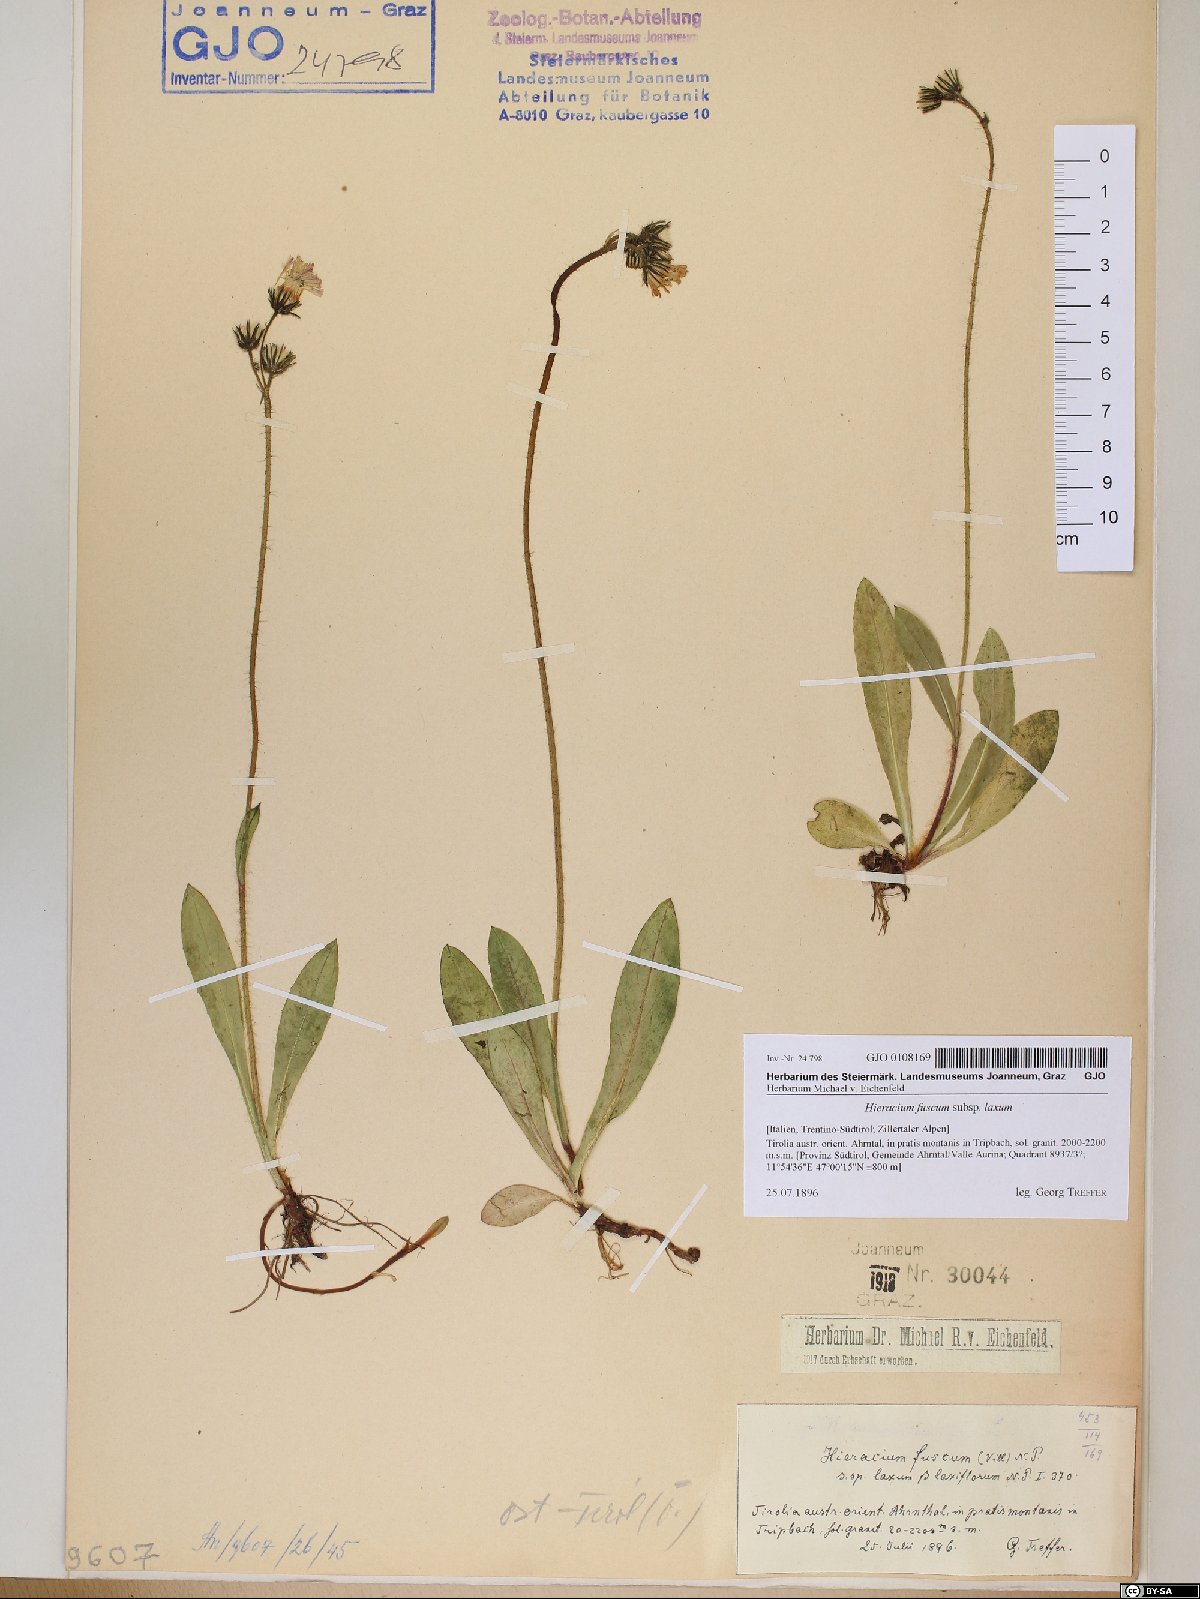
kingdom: Plantae
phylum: Tracheophyta
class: Magnoliopsida
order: Asterales
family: Asteraceae
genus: Pilosella
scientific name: Pilosella fusca
